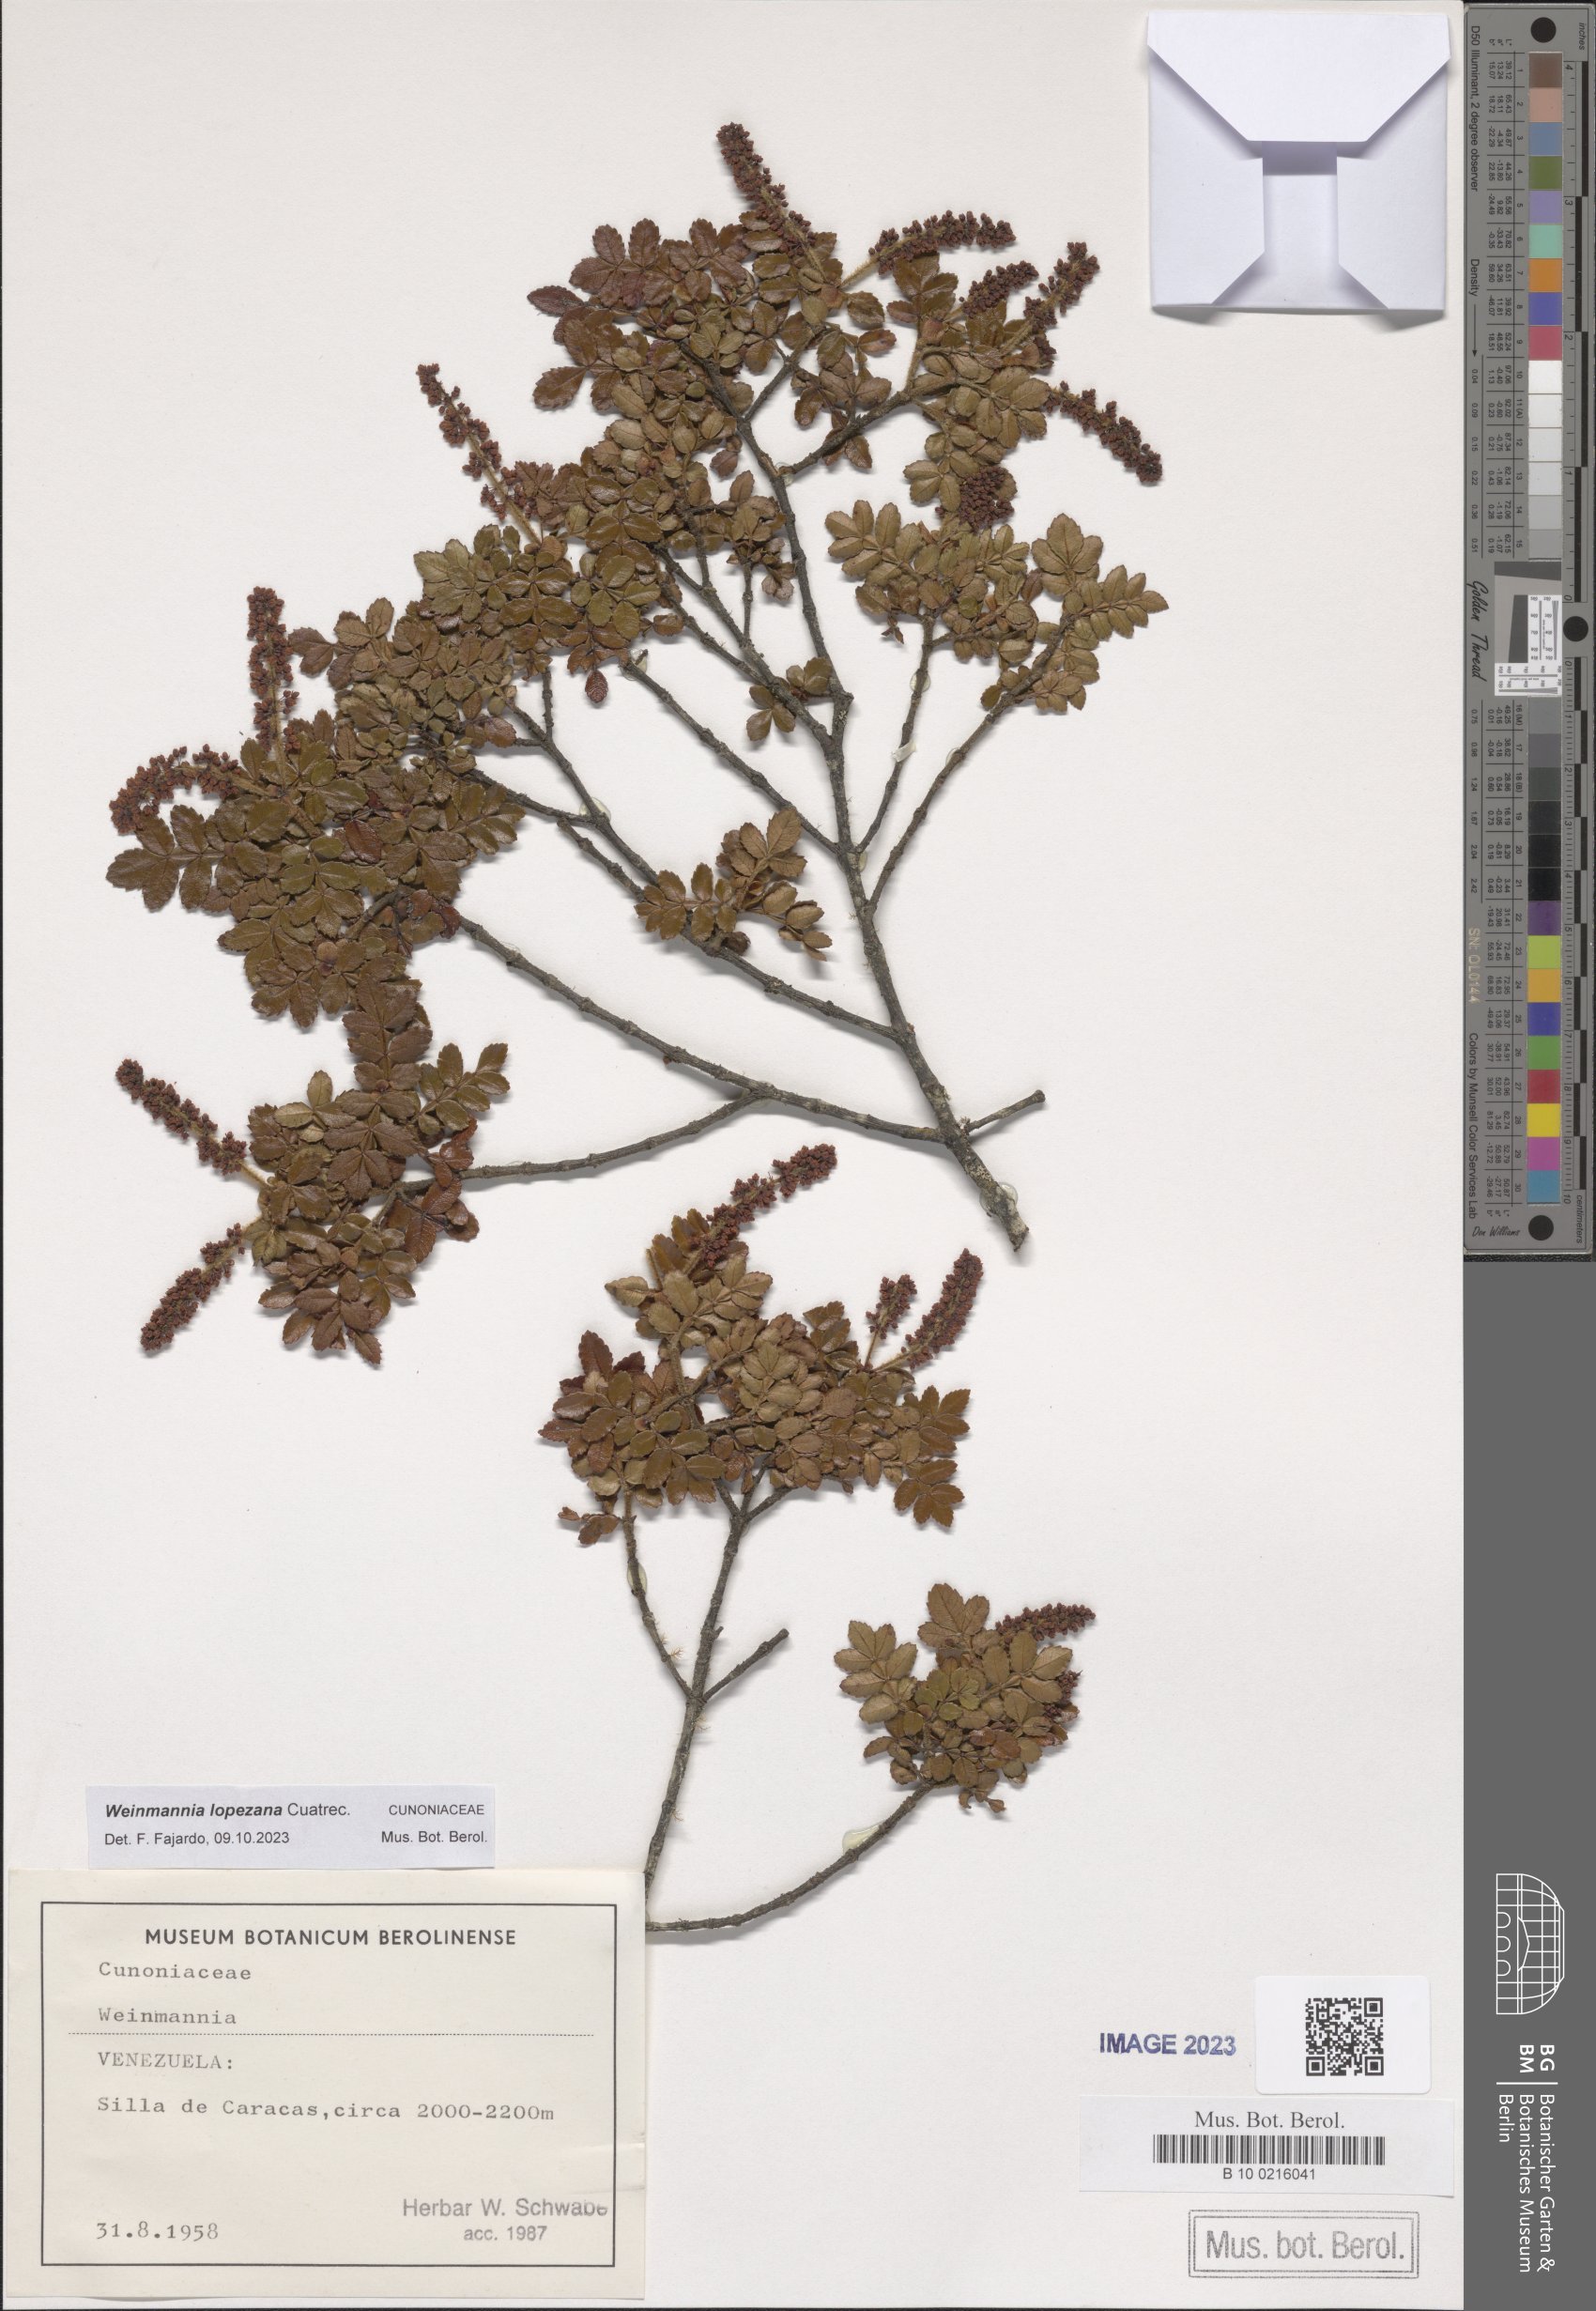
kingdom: Plantae
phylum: Tracheophyta
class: Magnoliopsida
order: Oxalidales
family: Cunoniaceae
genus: Weinmannia
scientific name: Weinmannia lopezana
